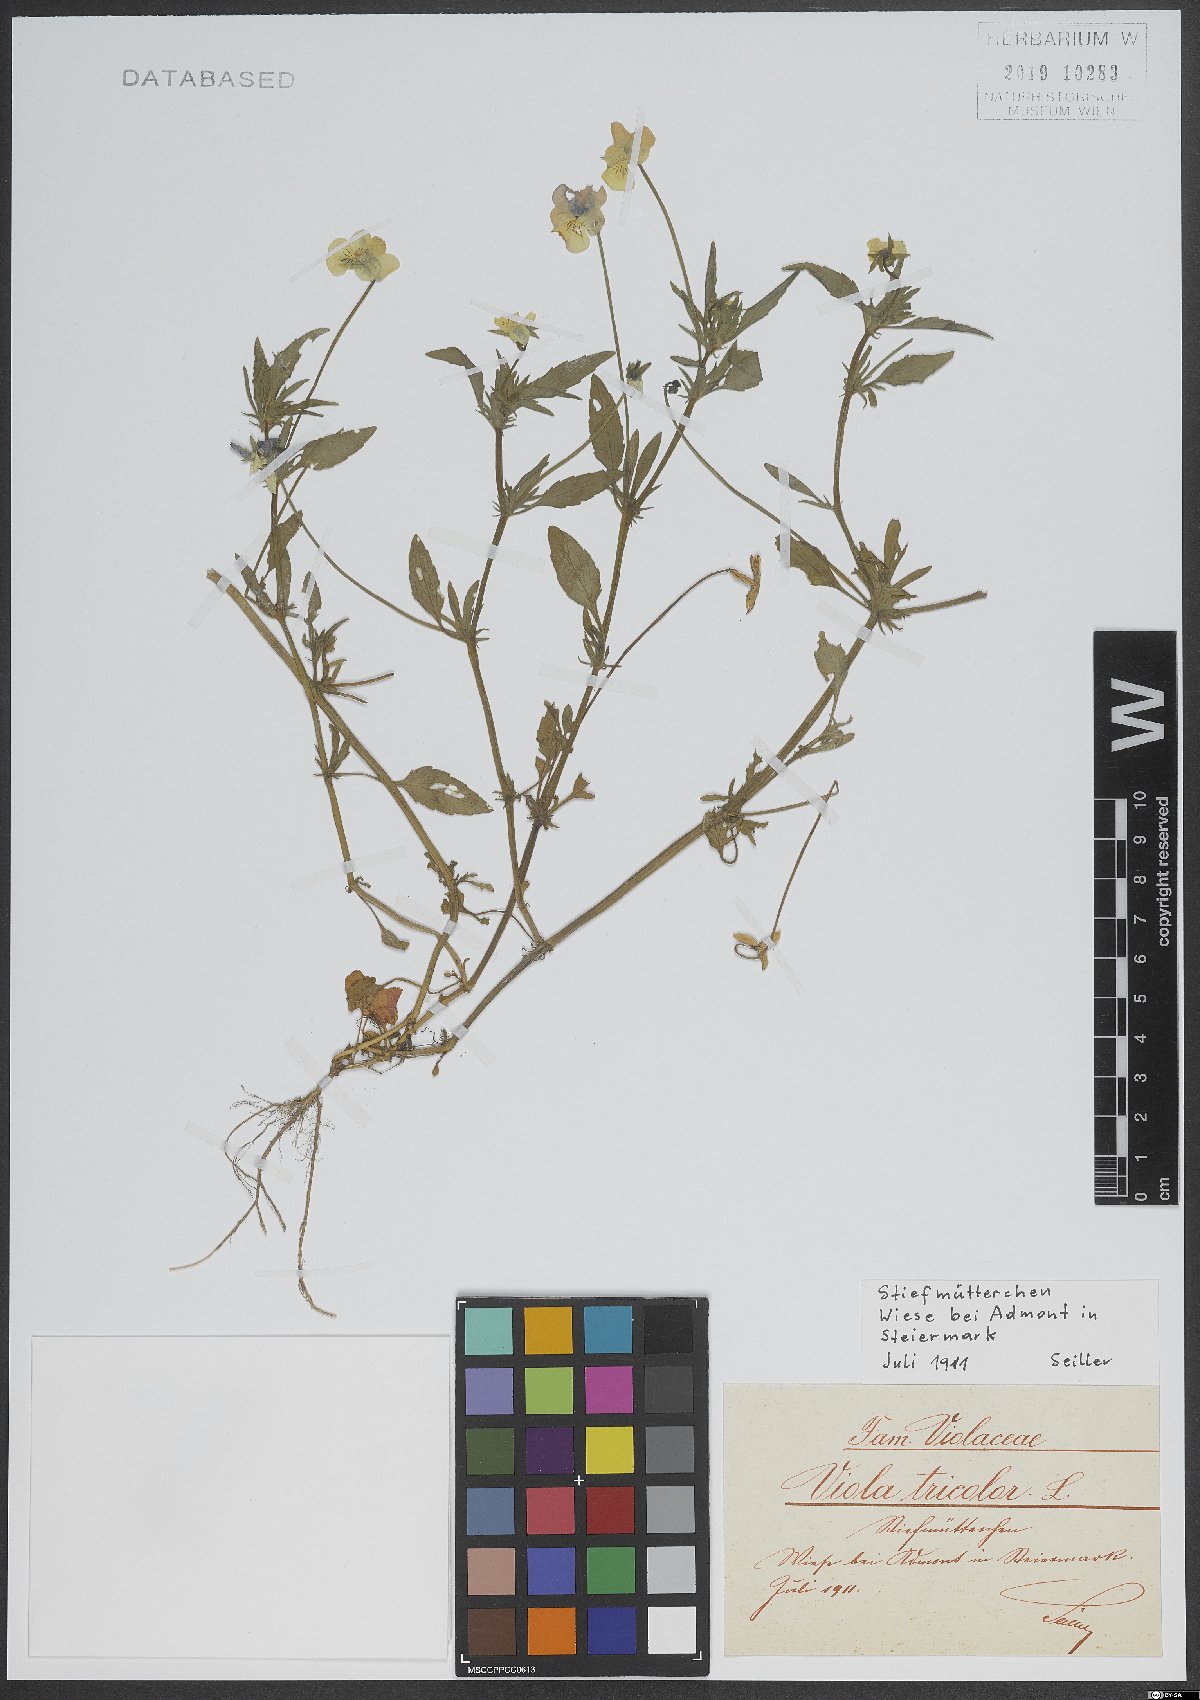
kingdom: Plantae
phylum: Tracheophyta
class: Magnoliopsida
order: Malpighiales
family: Violaceae
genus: Viola
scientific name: Viola tricolor
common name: Pansy
